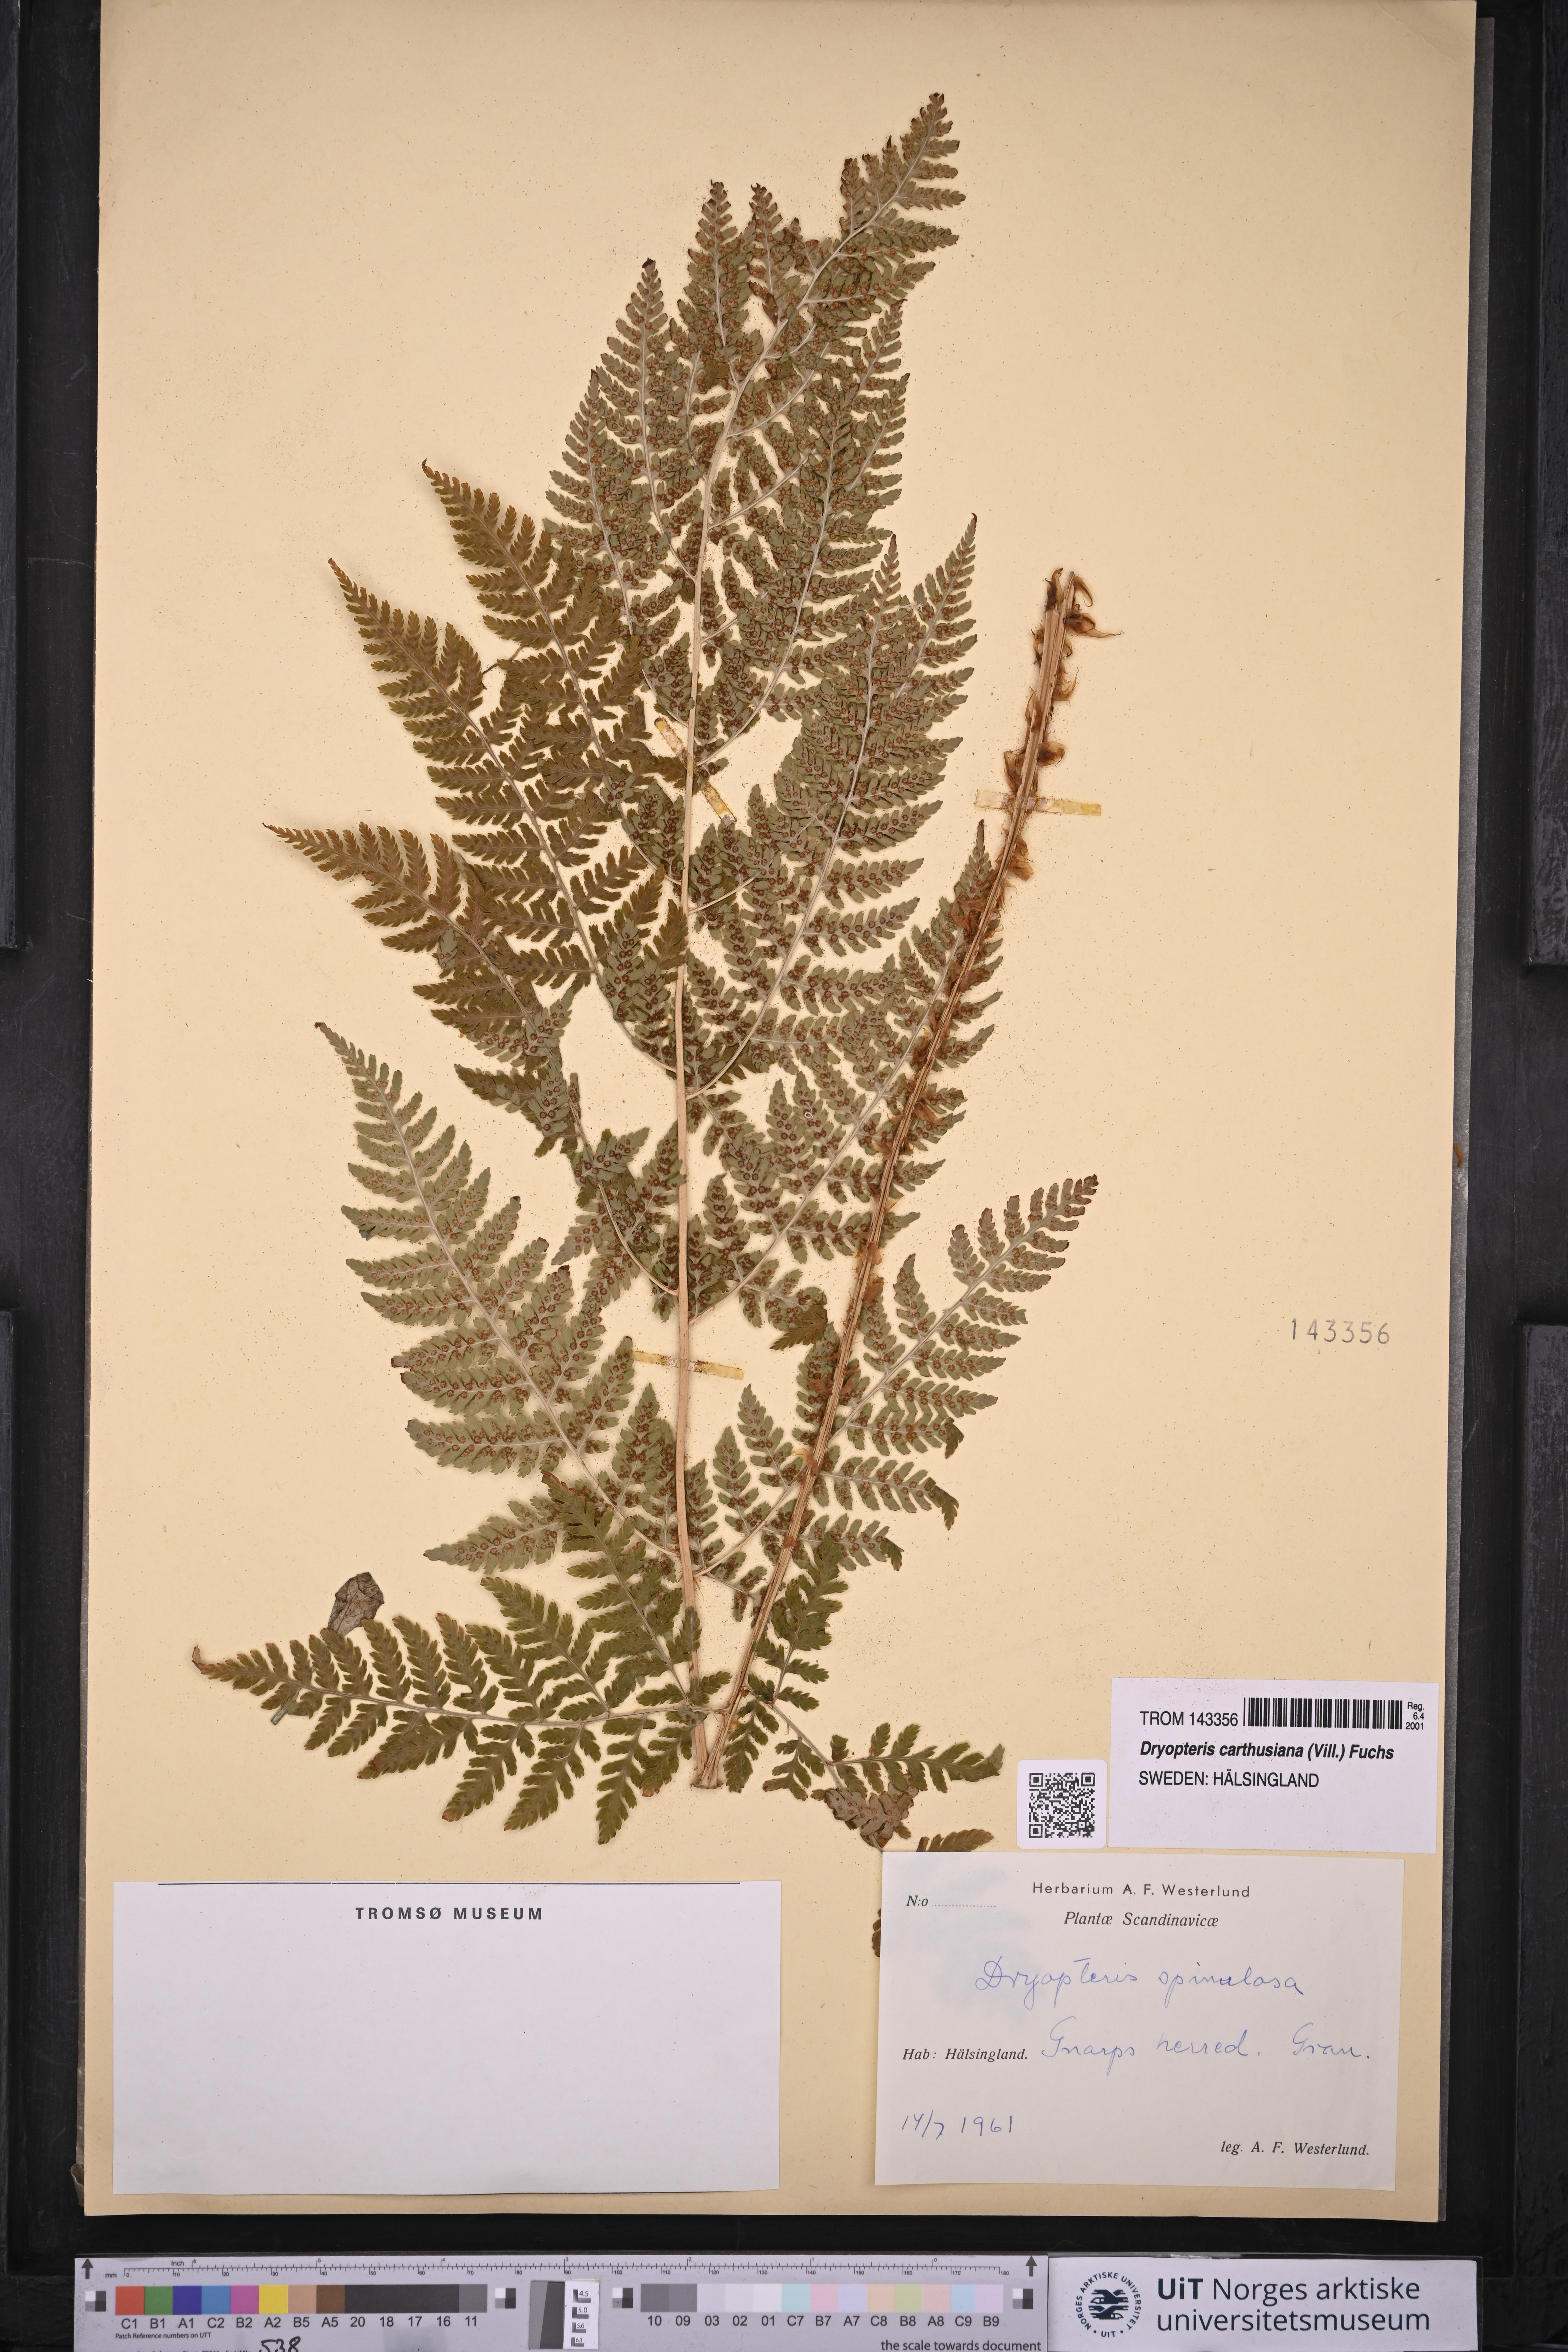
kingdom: Plantae
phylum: Tracheophyta
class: Polypodiopsida
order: Polypodiales
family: Dryopteridaceae
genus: Dryopteris
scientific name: Dryopteris carthusiana
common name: Narrow buckler-fern
